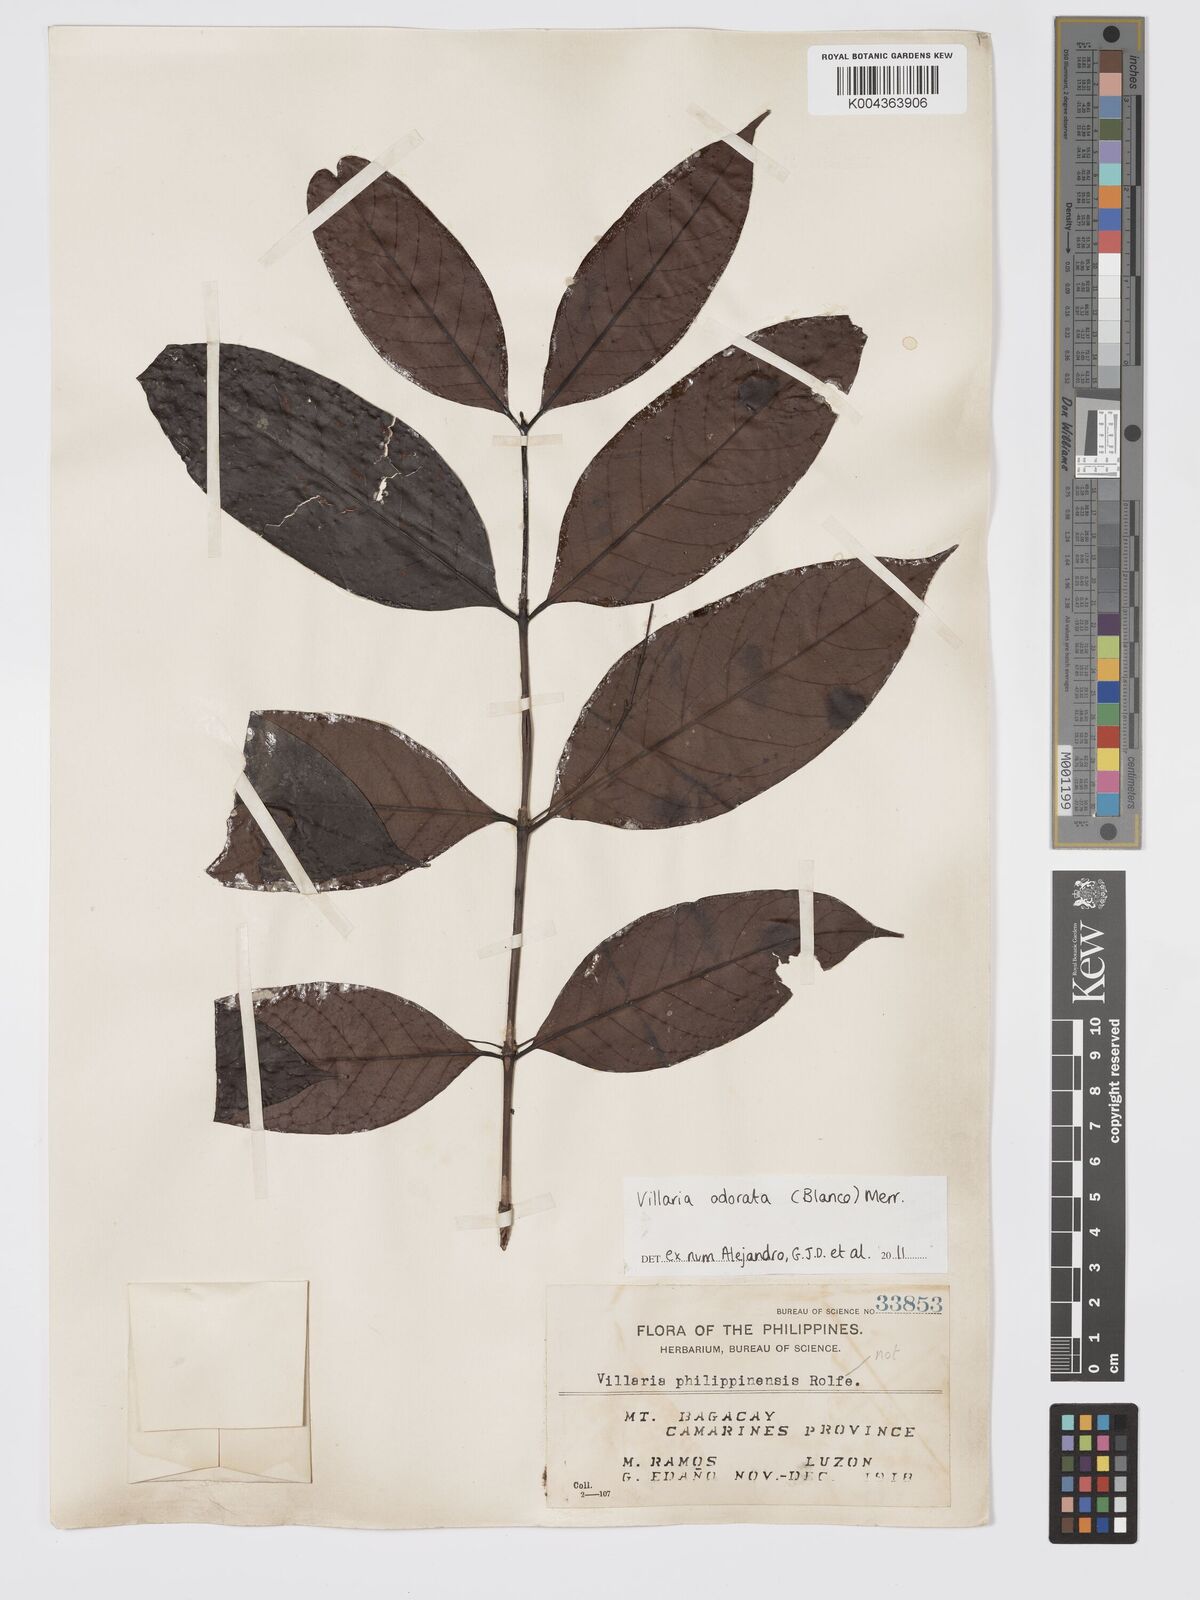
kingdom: Plantae
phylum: Tracheophyta
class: Magnoliopsida
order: Gentianales
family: Rubiaceae
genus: Villaria
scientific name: Villaria odorata
